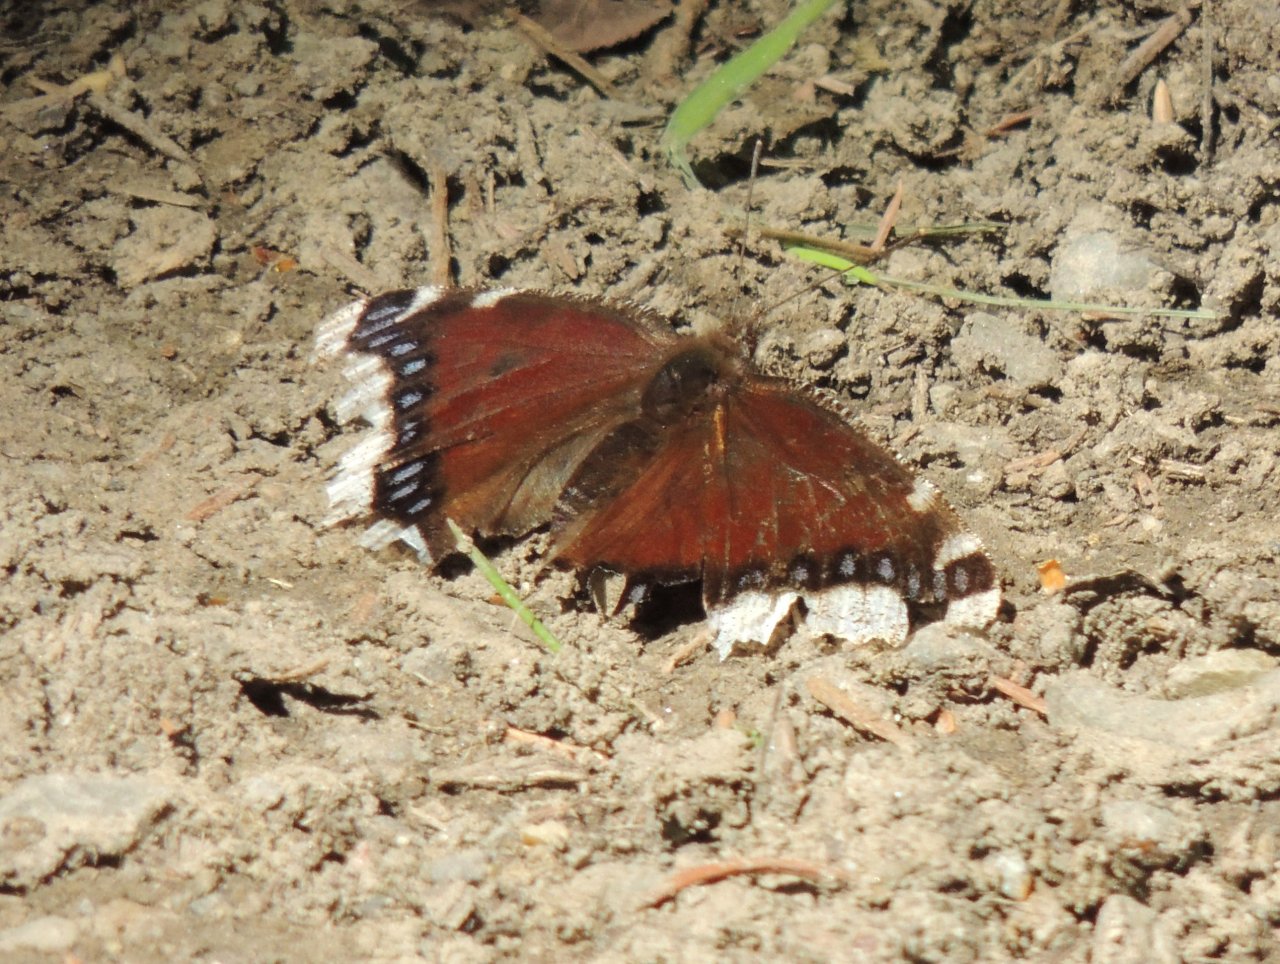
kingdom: Animalia
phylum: Arthropoda
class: Insecta
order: Lepidoptera
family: Nymphalidae
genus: Nymphalis
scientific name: Nymphalis antiopa
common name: Mourning Cloak
